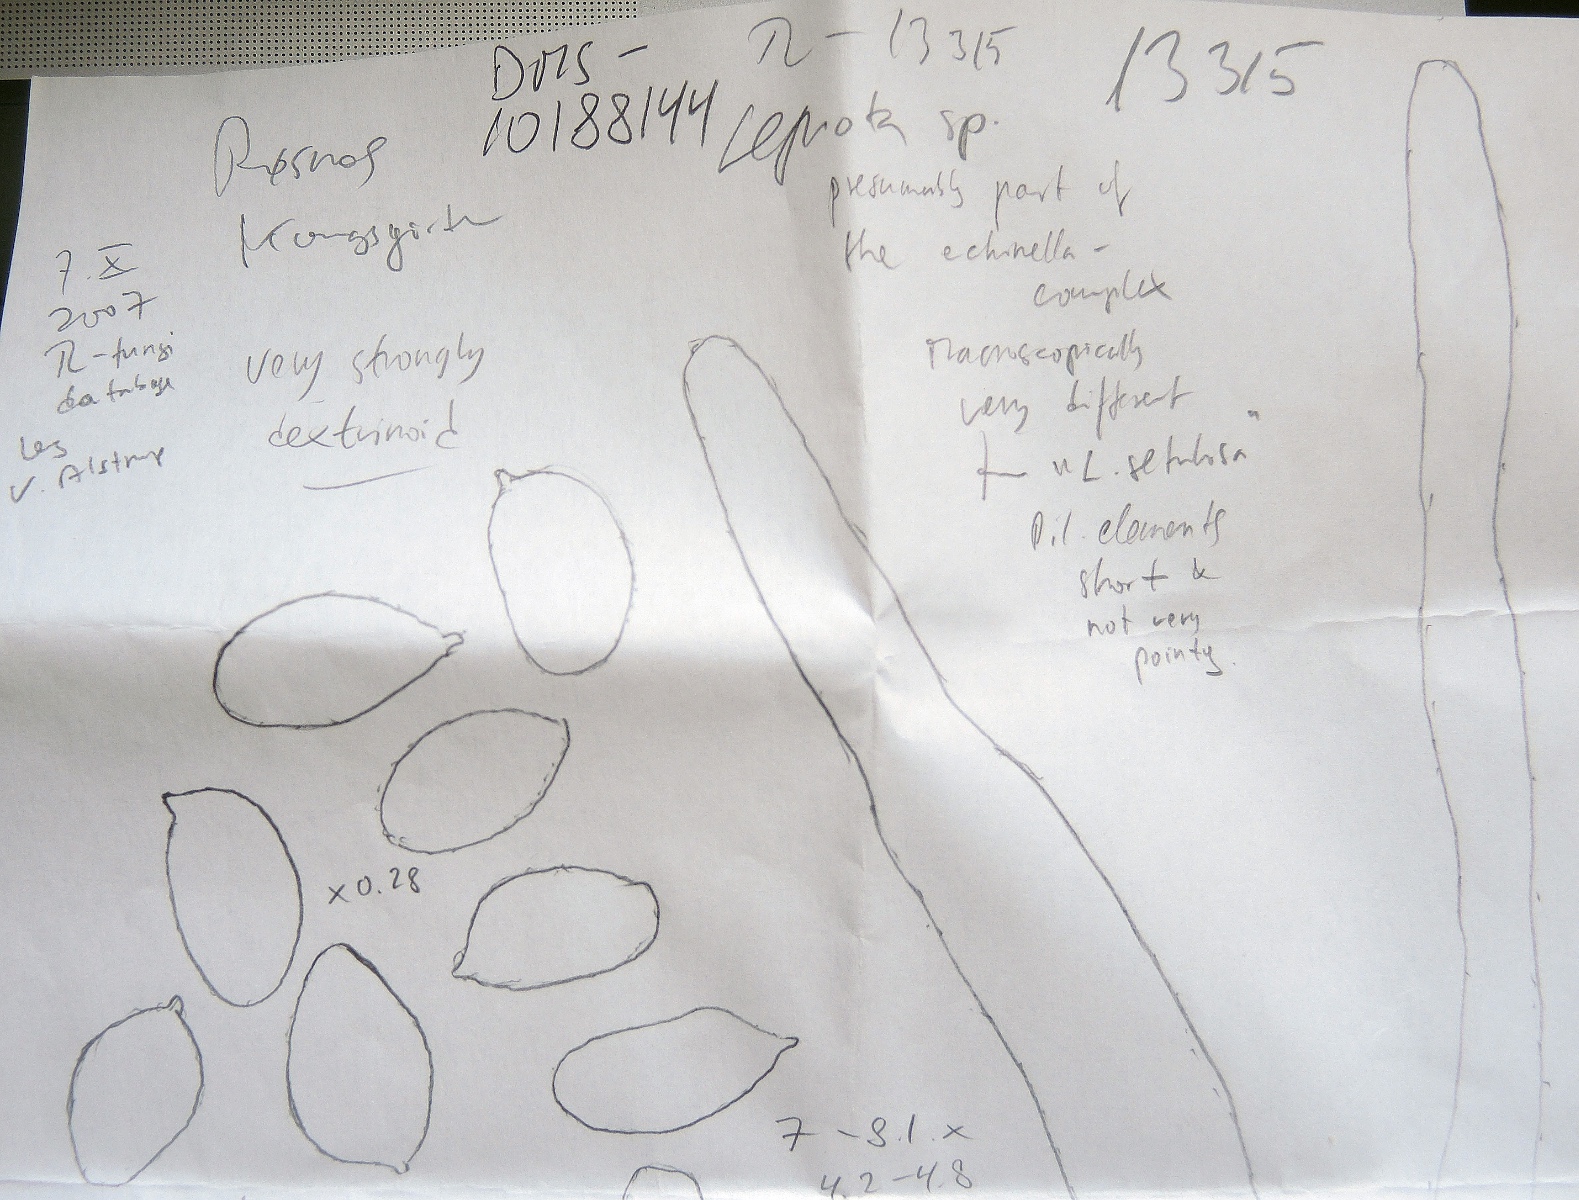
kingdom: Fungi
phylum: Basidiomycota
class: Agaricomycetes
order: Agaricales
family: Agaricaceae
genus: Lepiota
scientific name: Lepiota
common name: parasolhat
